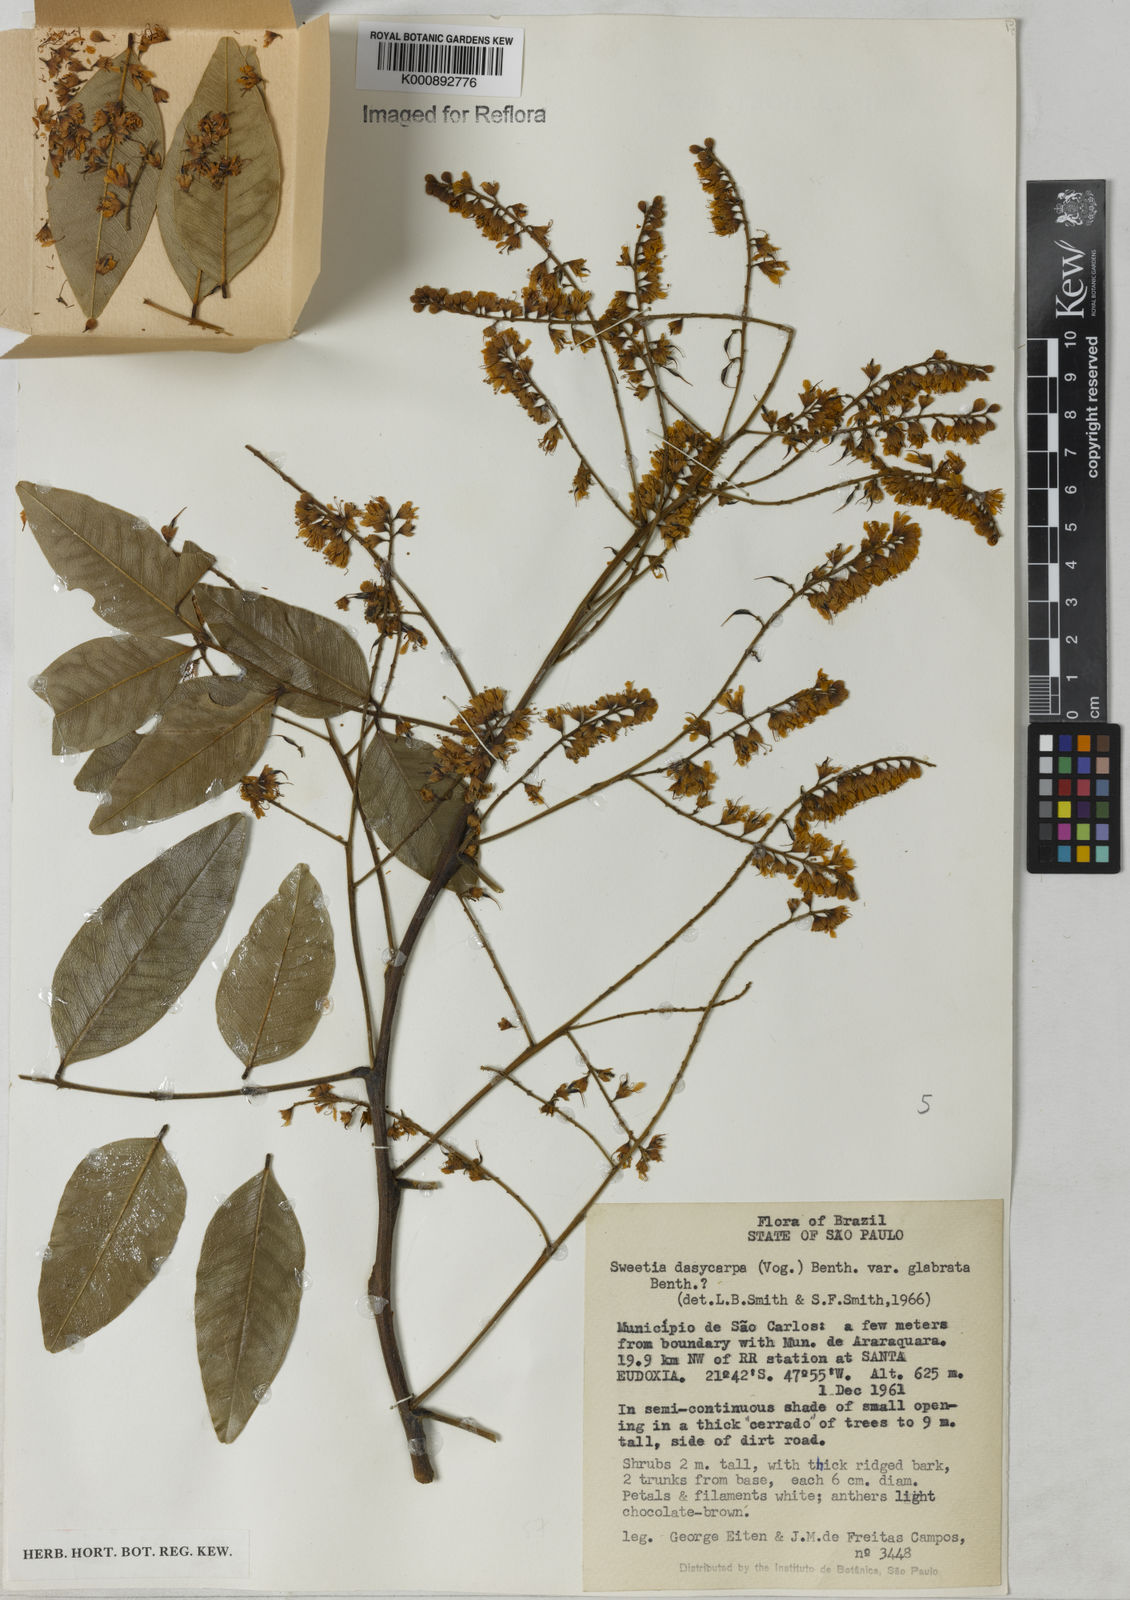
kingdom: Plantae
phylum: Tracheophyta
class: Magnoliopsida
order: Fabales
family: Fabaceae
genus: Leptolobium
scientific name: Leptolobium
